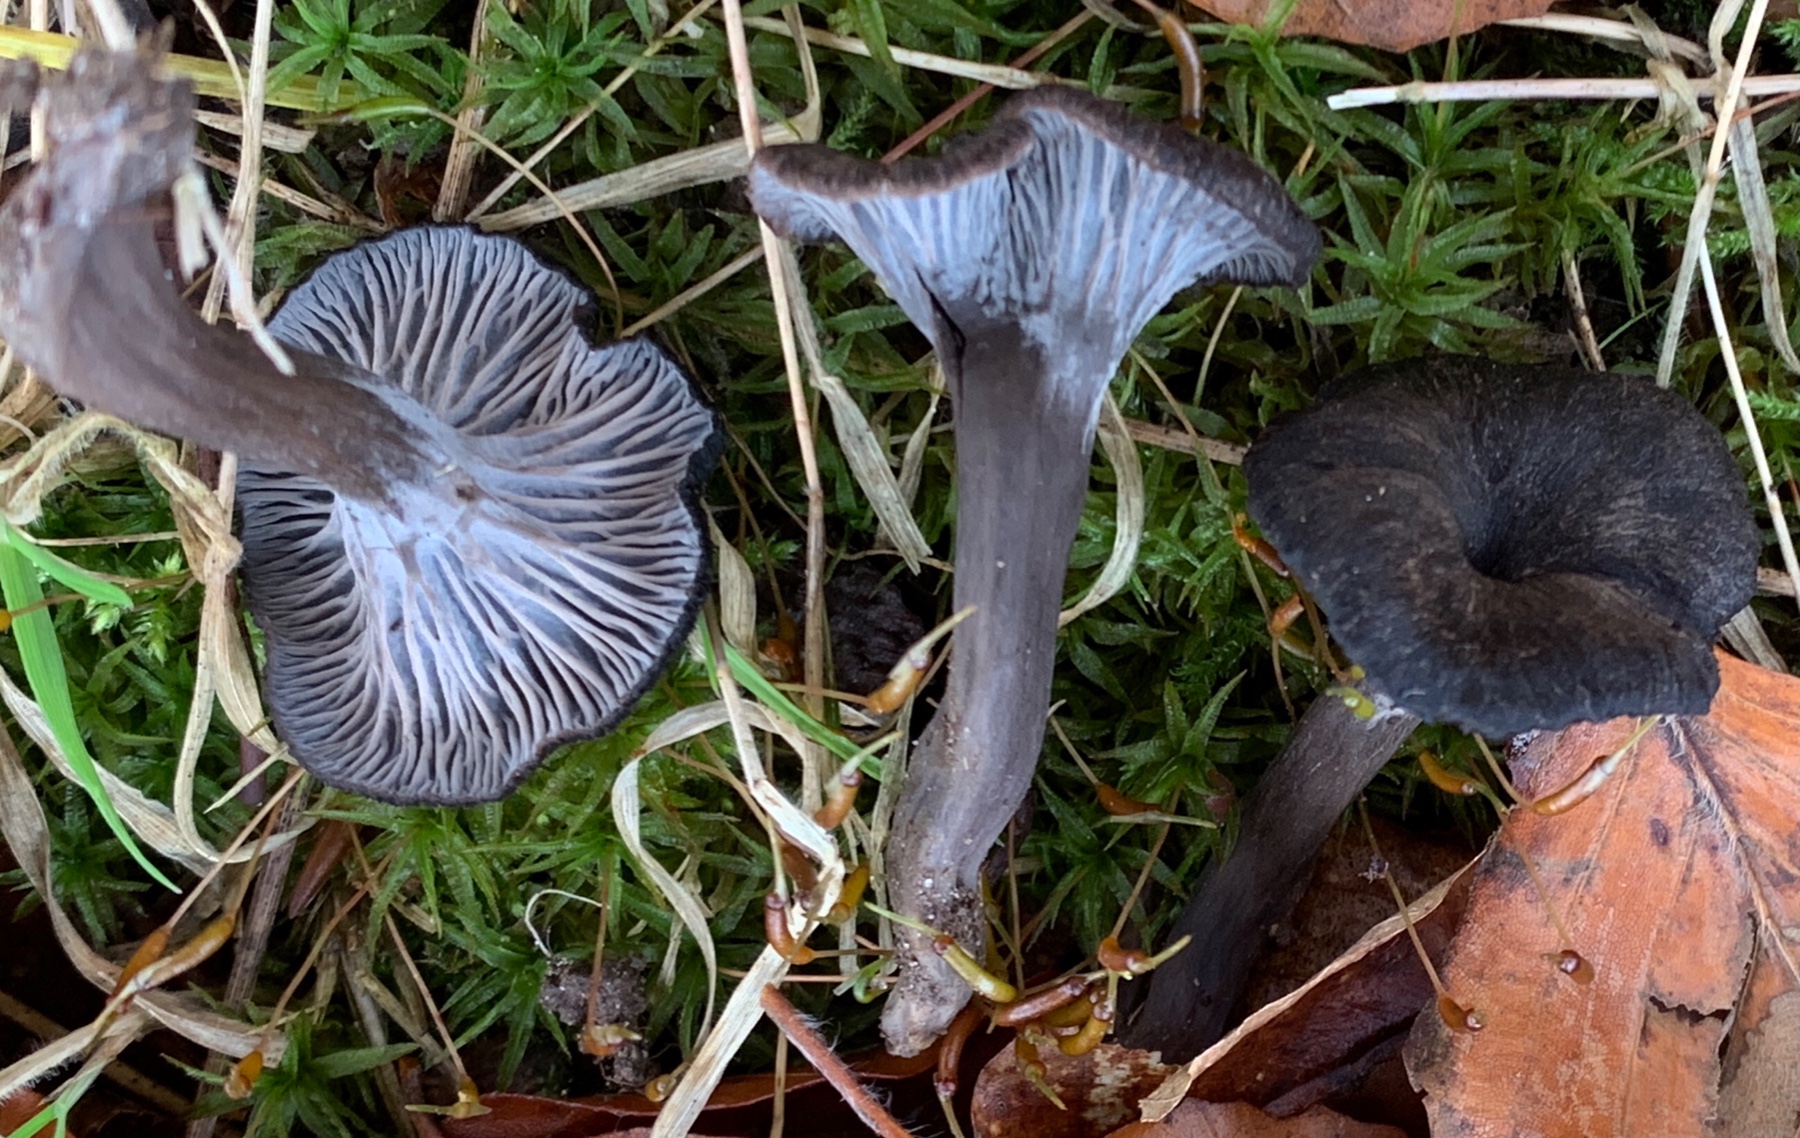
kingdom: Fungi
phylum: Basidiomycota
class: Agaricomycetes
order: Cantharellales
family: Hydnaceae
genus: Cantharellus
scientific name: Cantharellus cinereus
